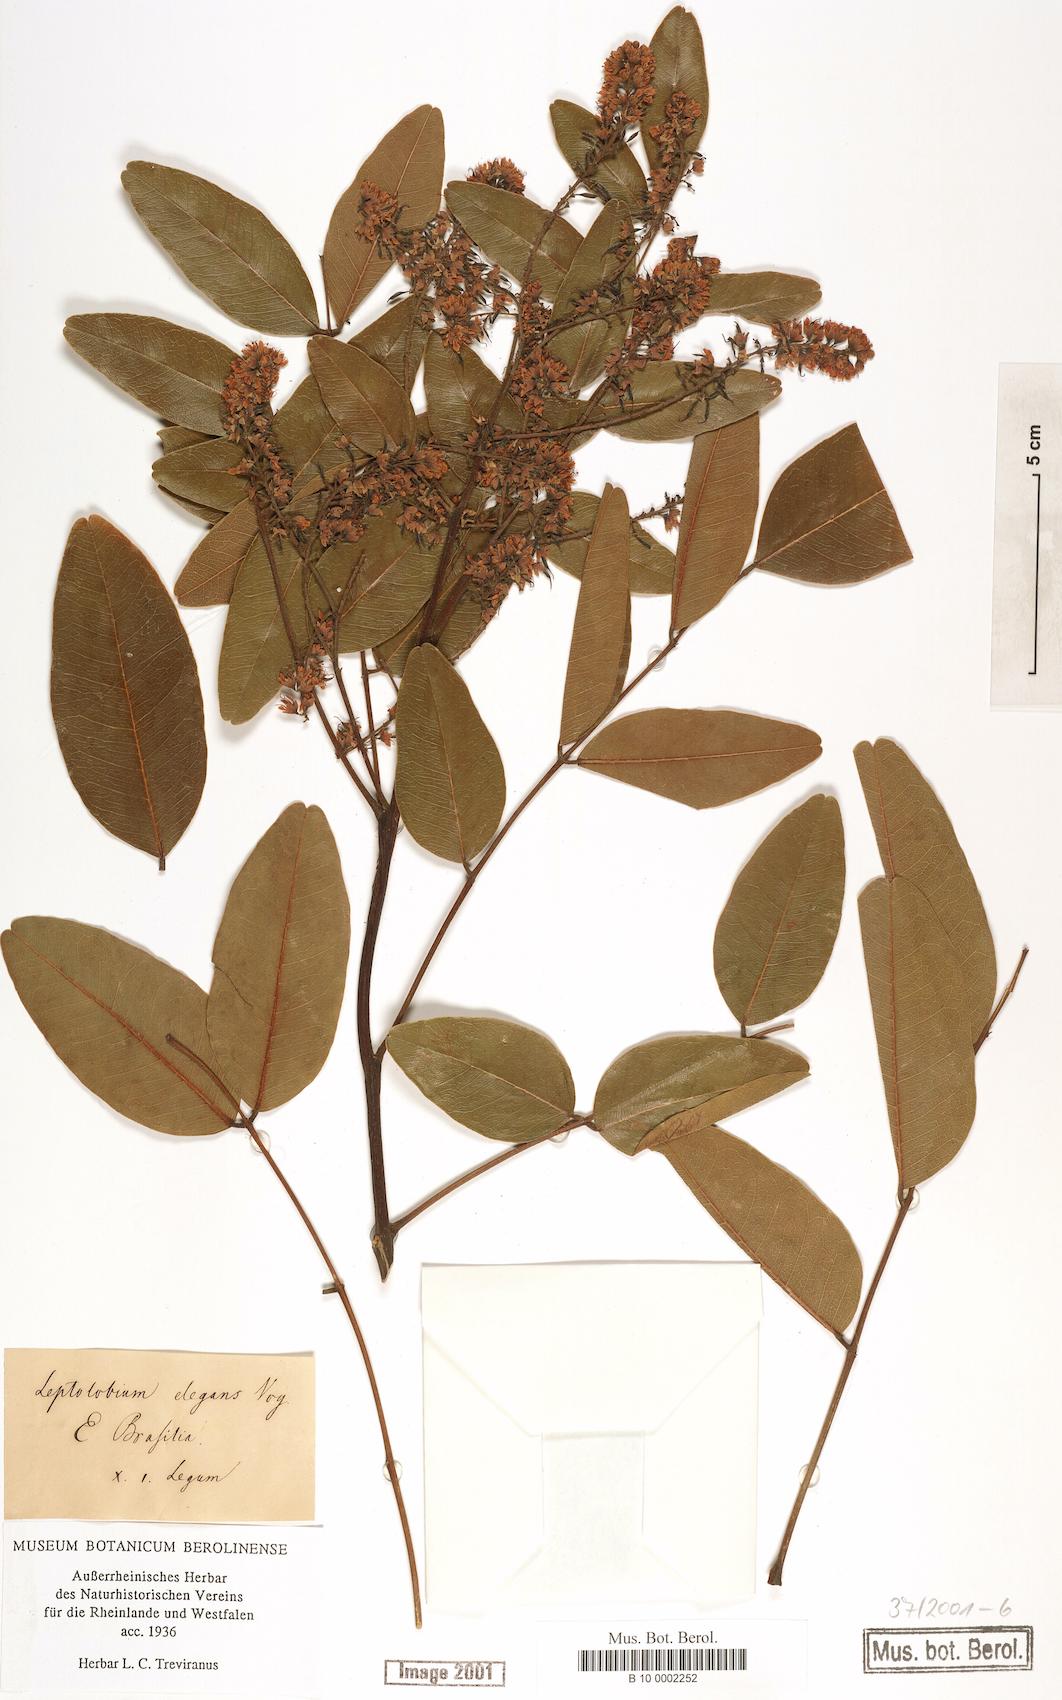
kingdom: Plantae
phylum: Tracheophyta
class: Magnoliopsida
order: Fabales
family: Fabaceae
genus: Leptolobium
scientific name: Leptolobium elegans
